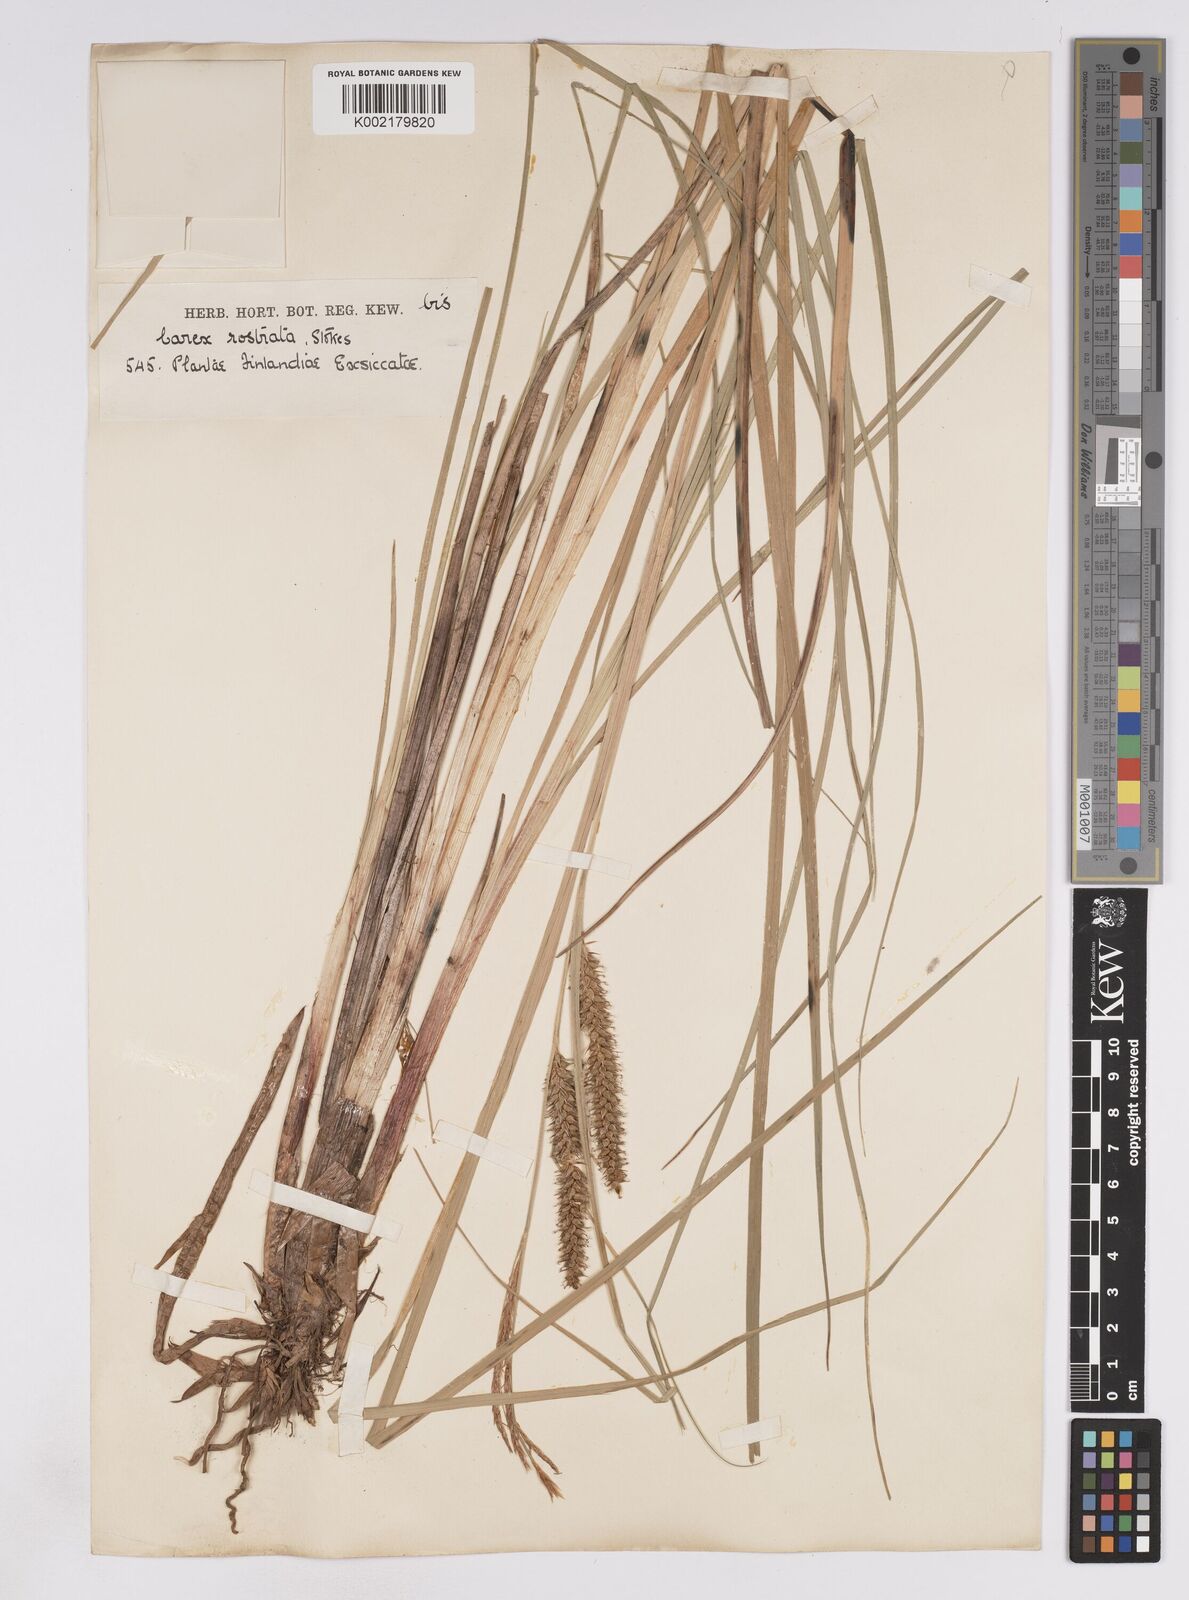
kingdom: Plantae
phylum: Tracheophyta
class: Liliopsida
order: Poales
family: Cyperaceae
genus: Carex
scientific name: Carex rostrata
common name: Bottle sedge
